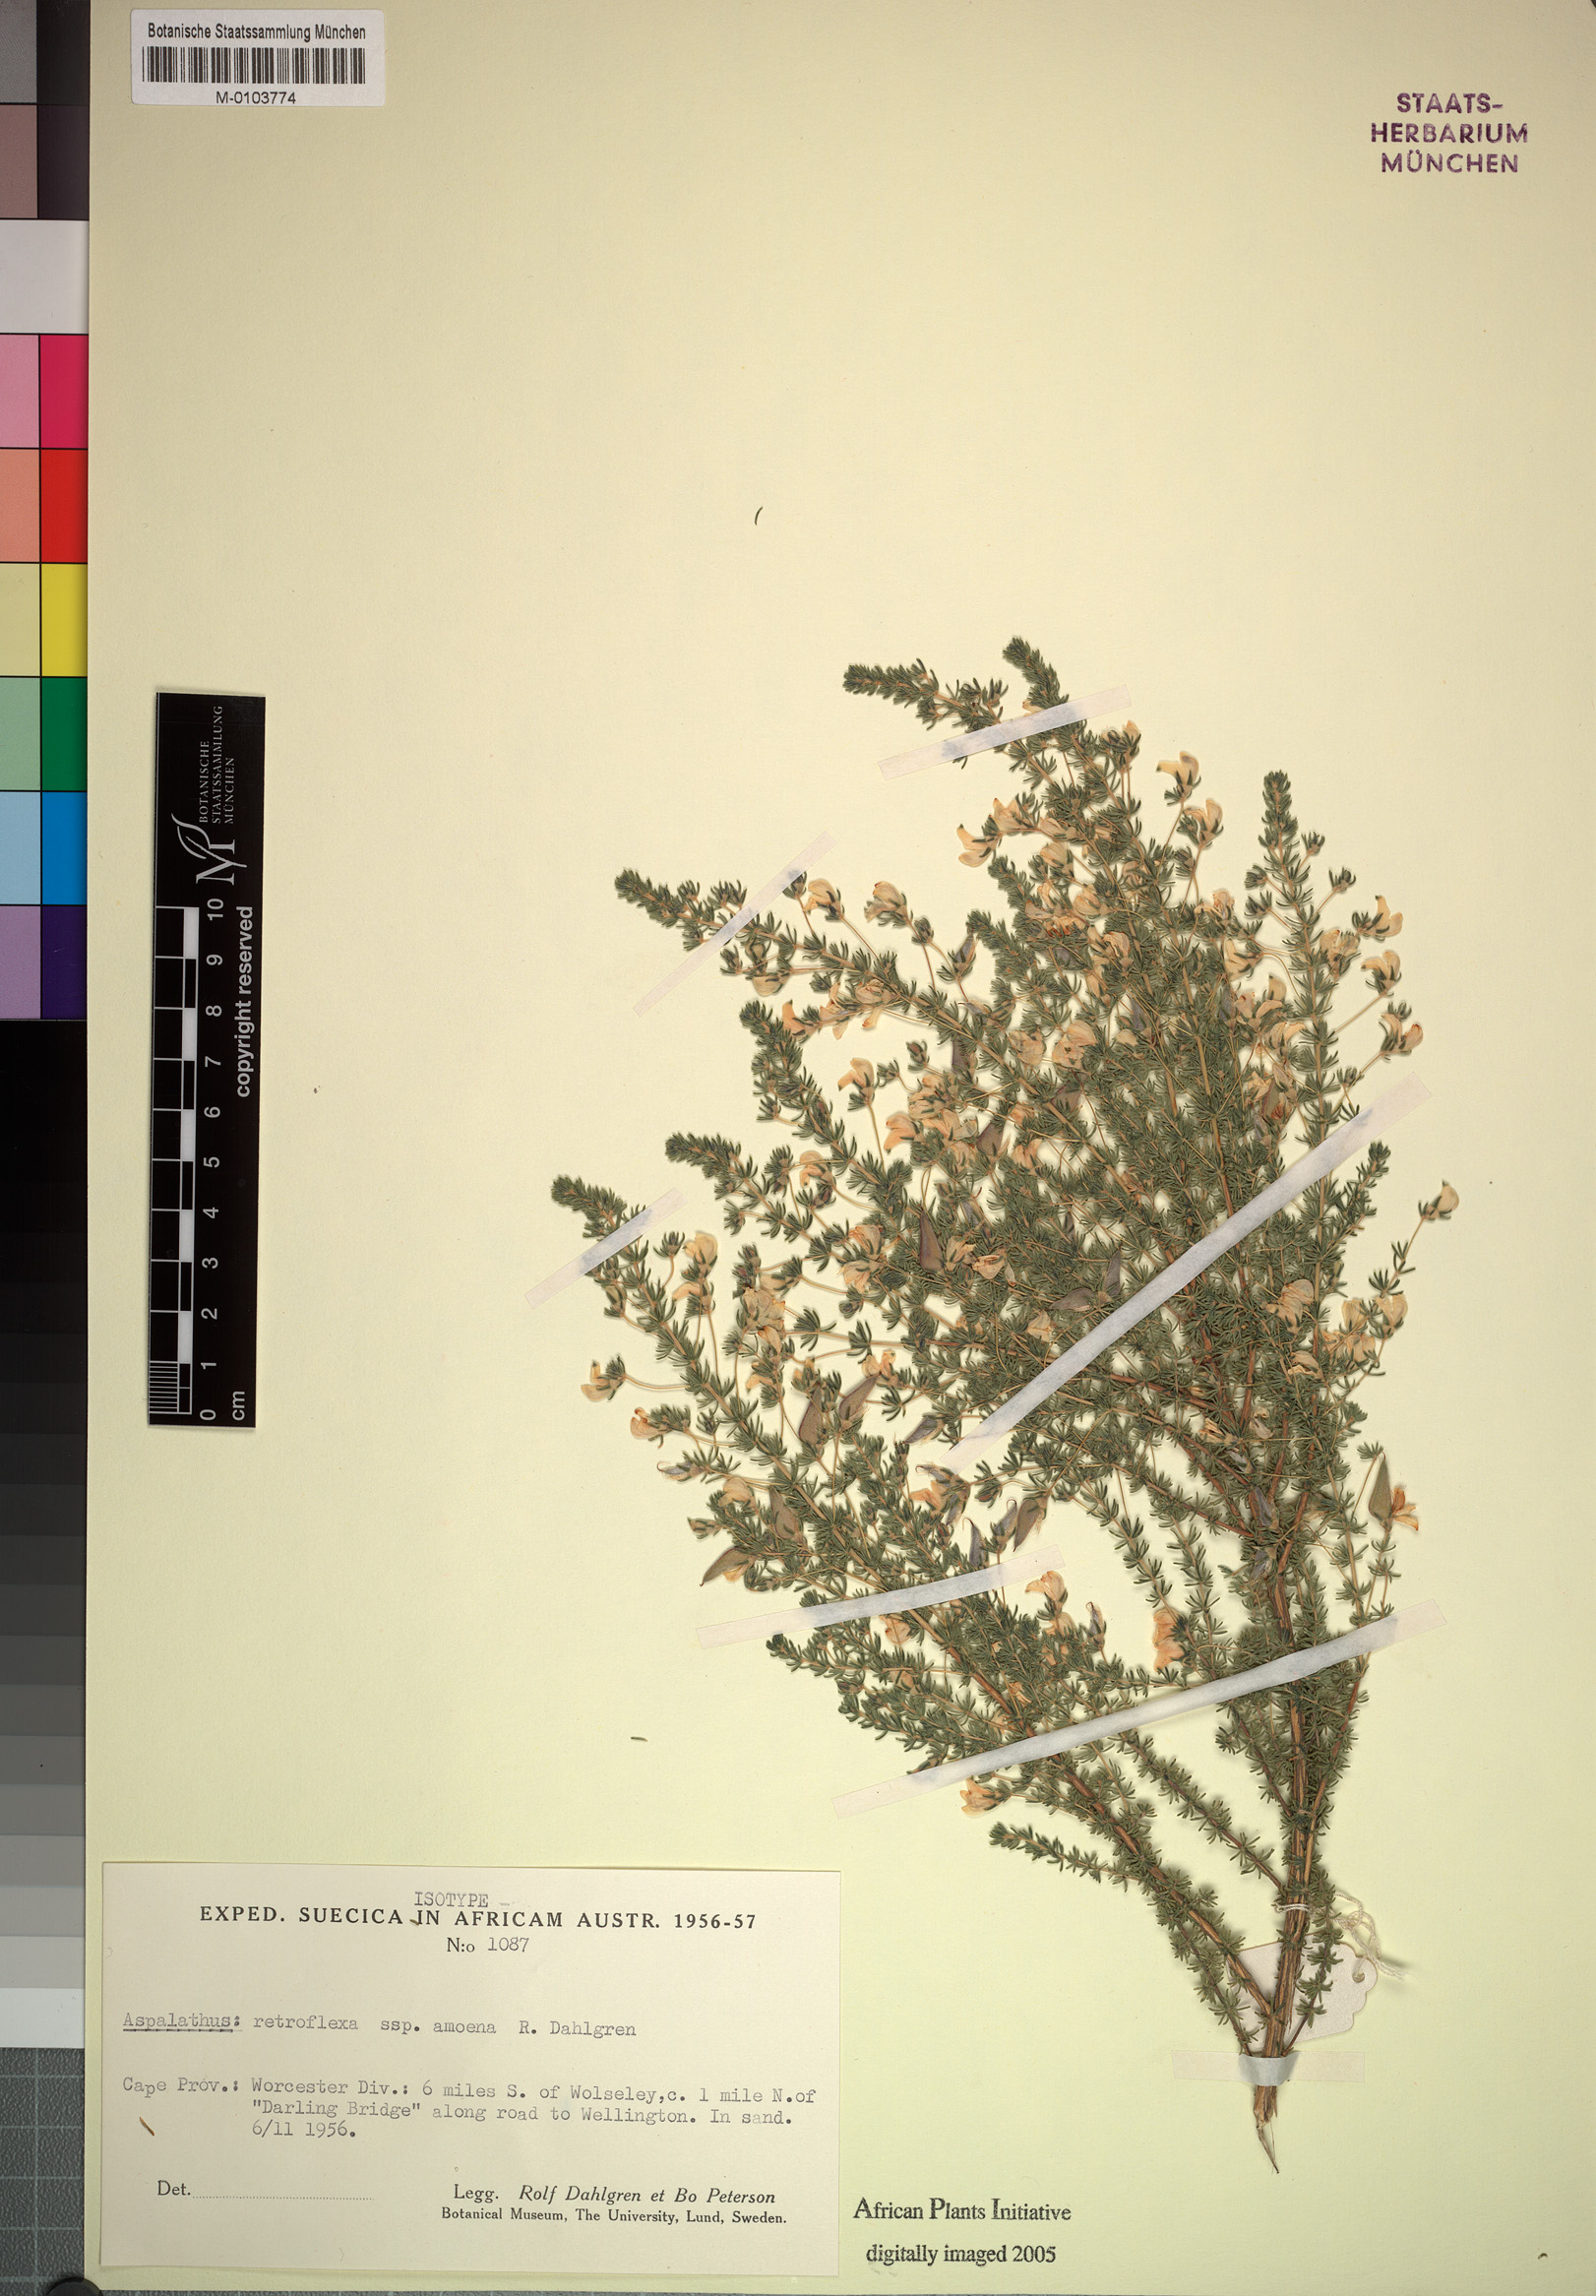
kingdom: Plantae
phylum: Tracheophyta
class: Magnoliopsida
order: Fabales
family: Fabaceae
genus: Aspalathus
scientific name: Aspalathus amoena
